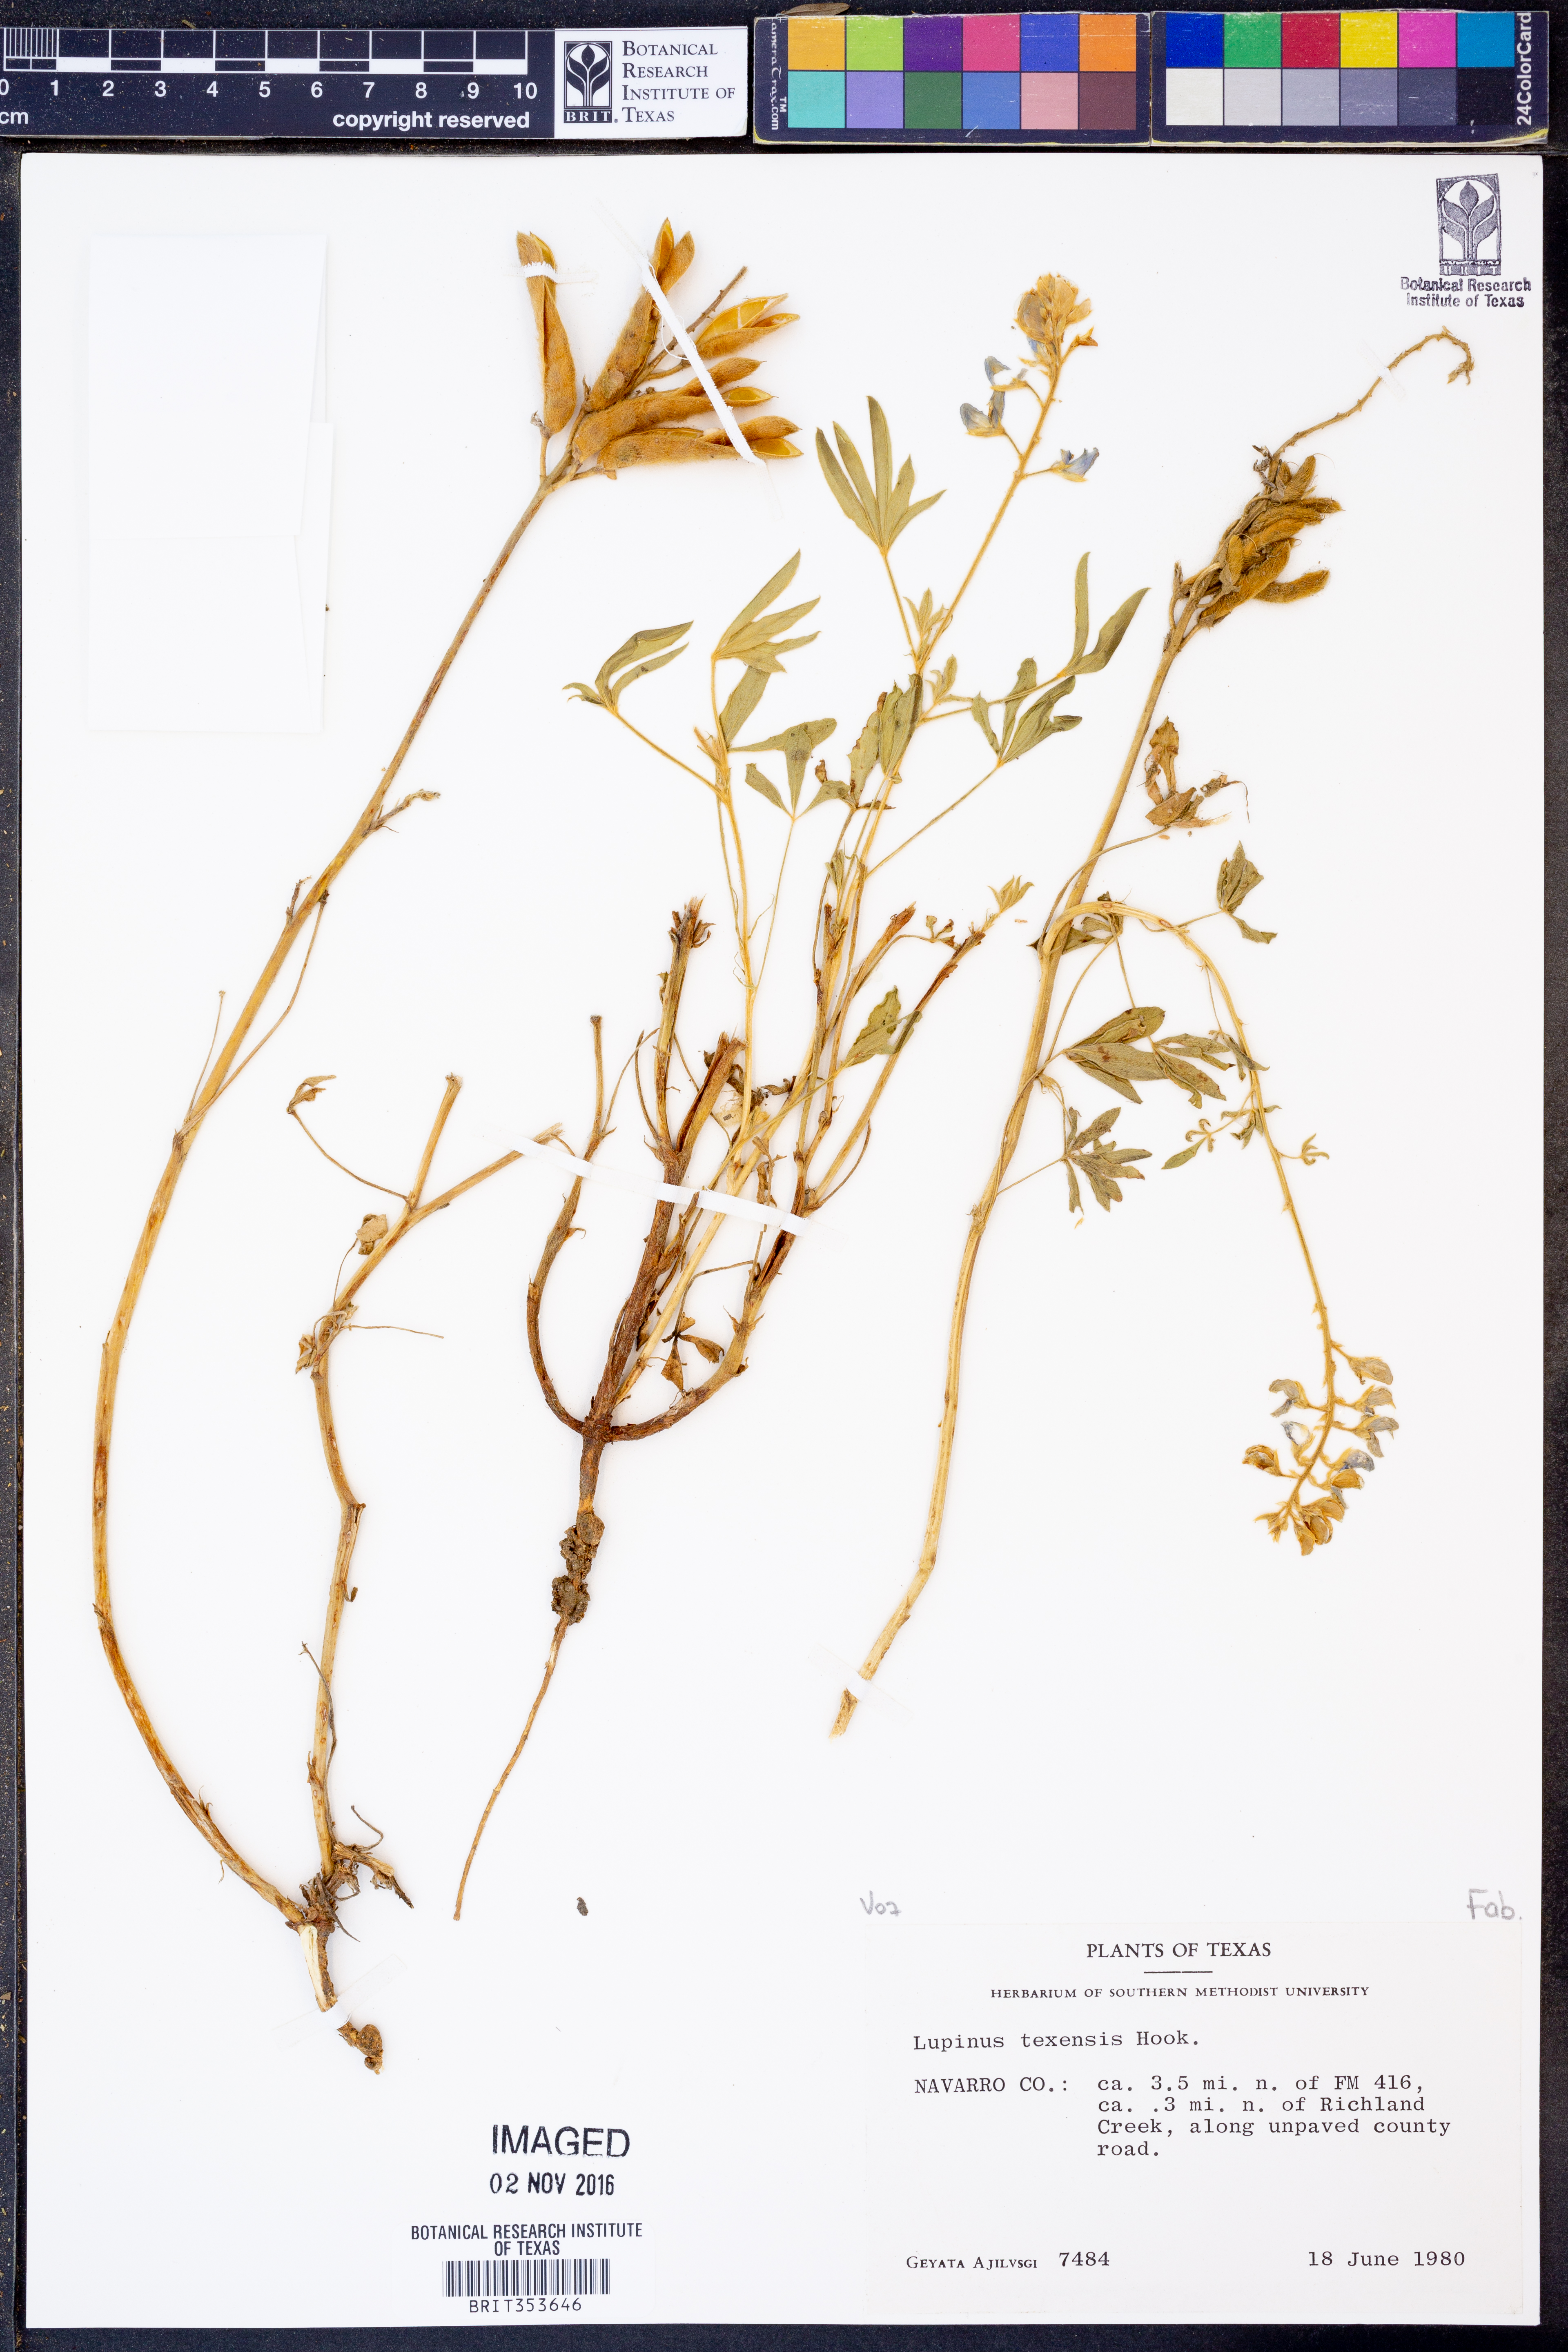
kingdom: Plantae
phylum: Tracheophyta
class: Magnoliopsida
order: Fabales
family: Fabaceae
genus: Lupinus
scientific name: Lupinus texensis
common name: Texas bluebonnet
